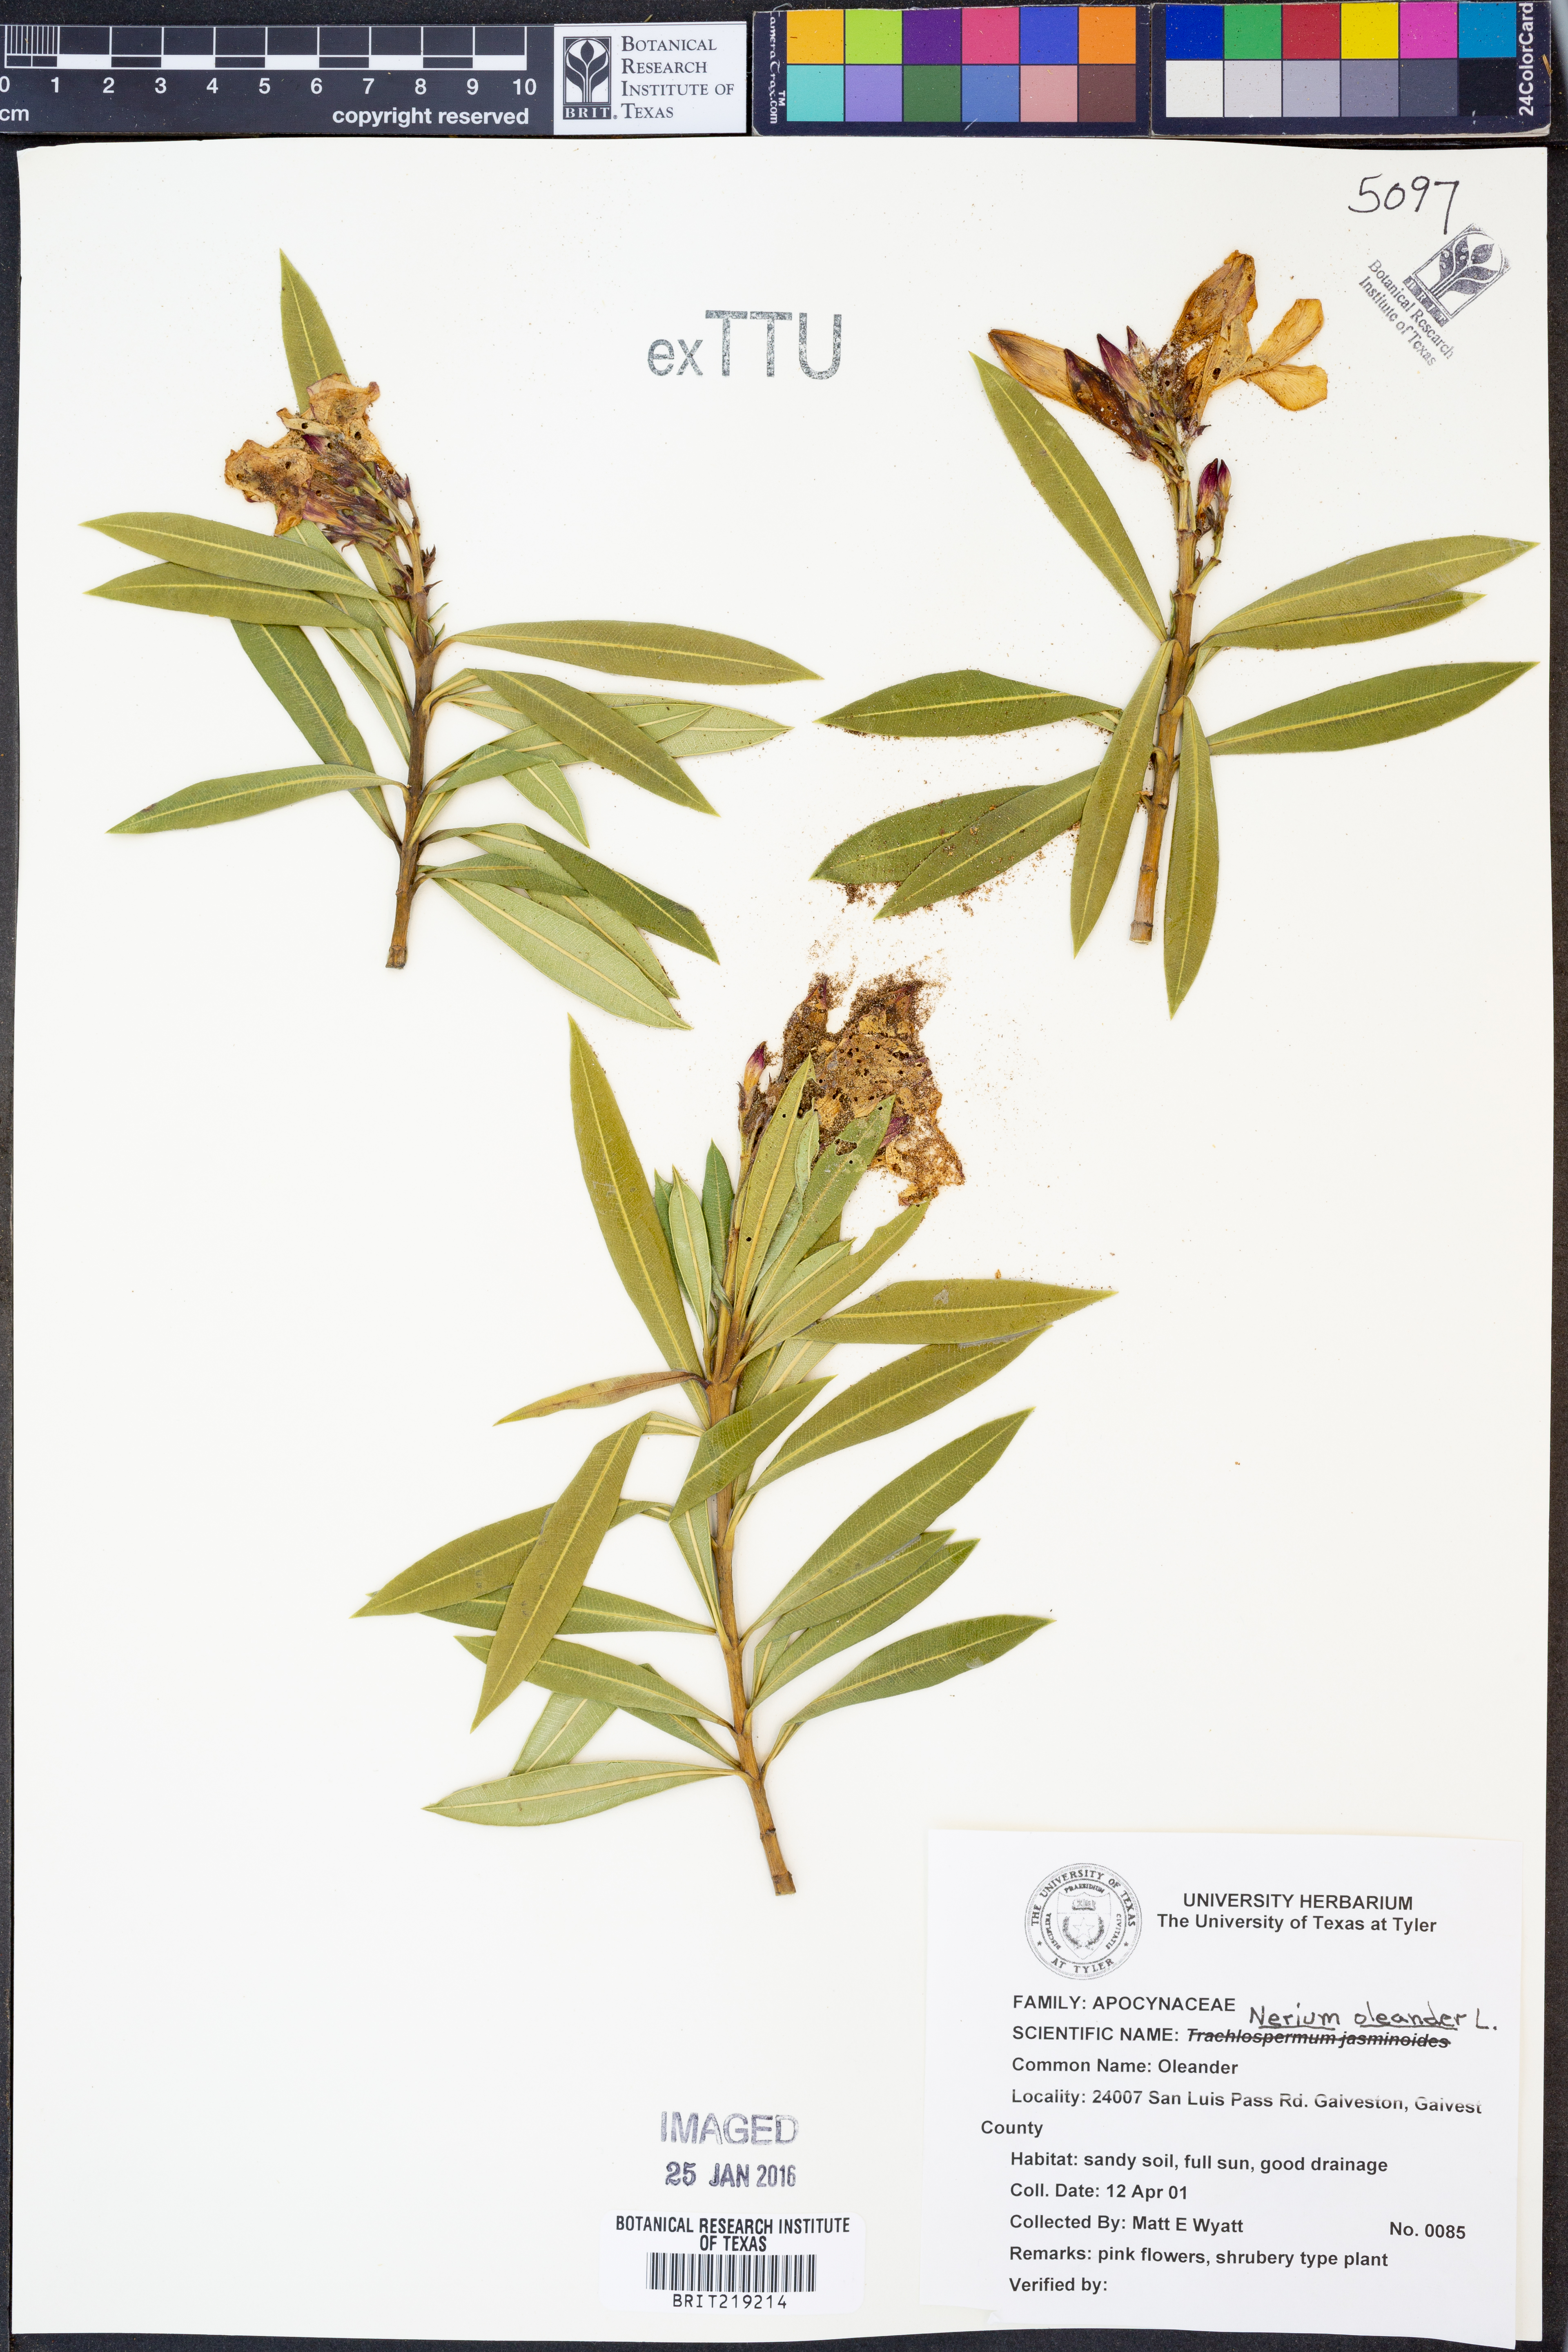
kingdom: Plantae
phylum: Tracheophyta
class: Magnoliopsida
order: Gentianales
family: Apocynaceae
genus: Nerium
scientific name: Nerium oleander
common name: Oleander
